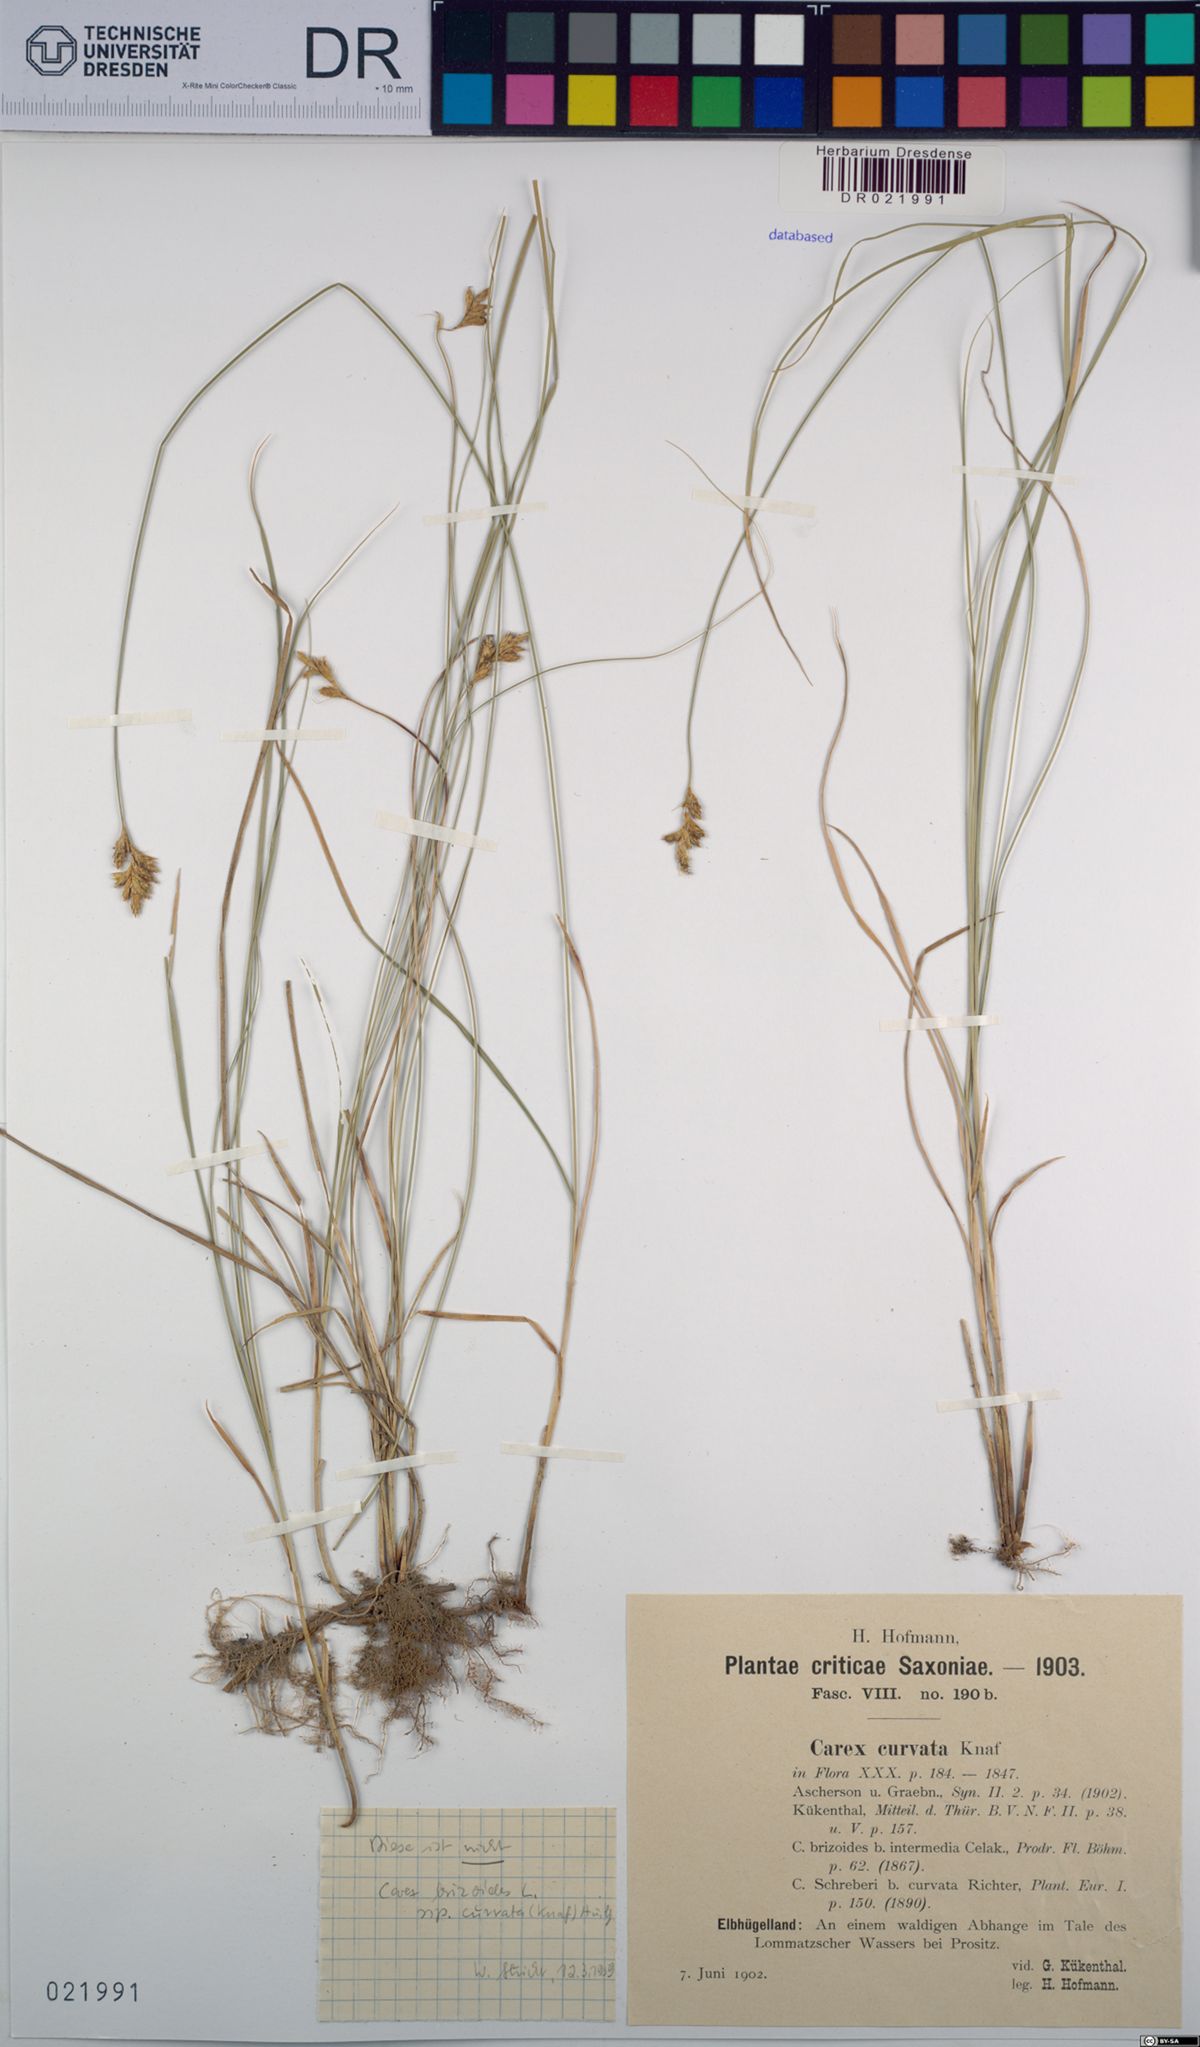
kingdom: Plantae
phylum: Tracheophyta
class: Liliopsida
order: Poales
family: Cyperaceae
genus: Carex
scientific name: Carex curvata
